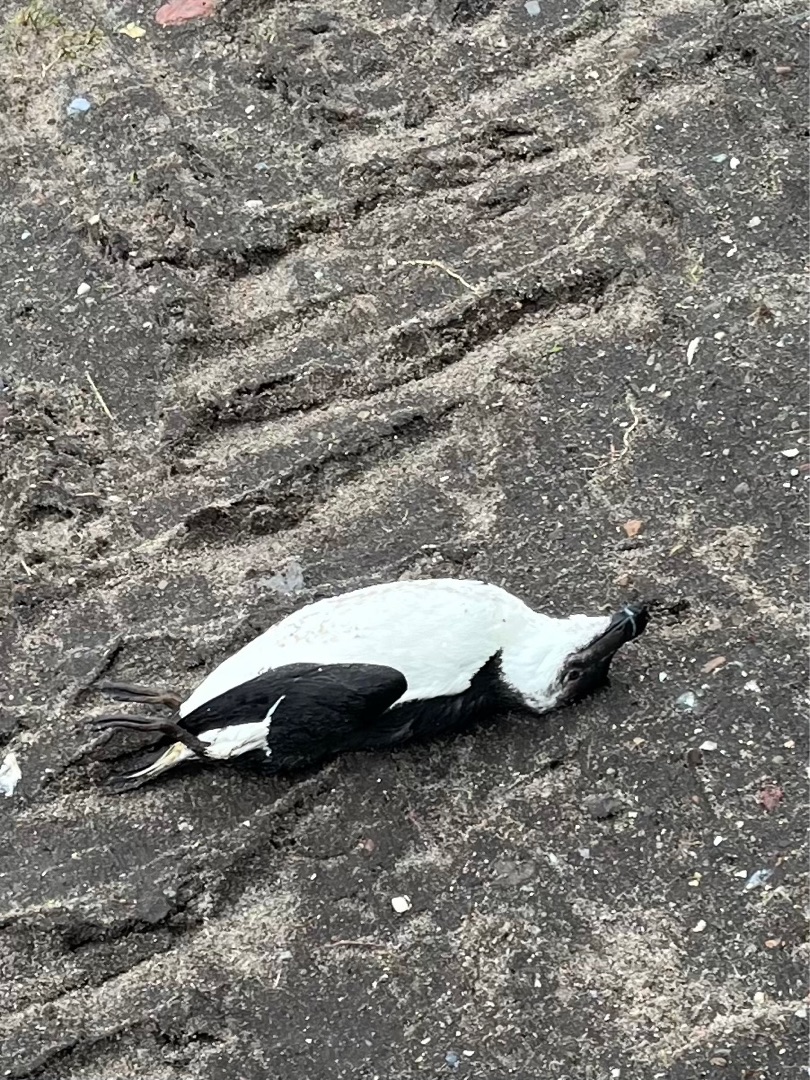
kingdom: Animalia
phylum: Chordata
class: Aves
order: Charadriiformes
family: Alcidae
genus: Alca
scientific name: Alca torda
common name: Alk
